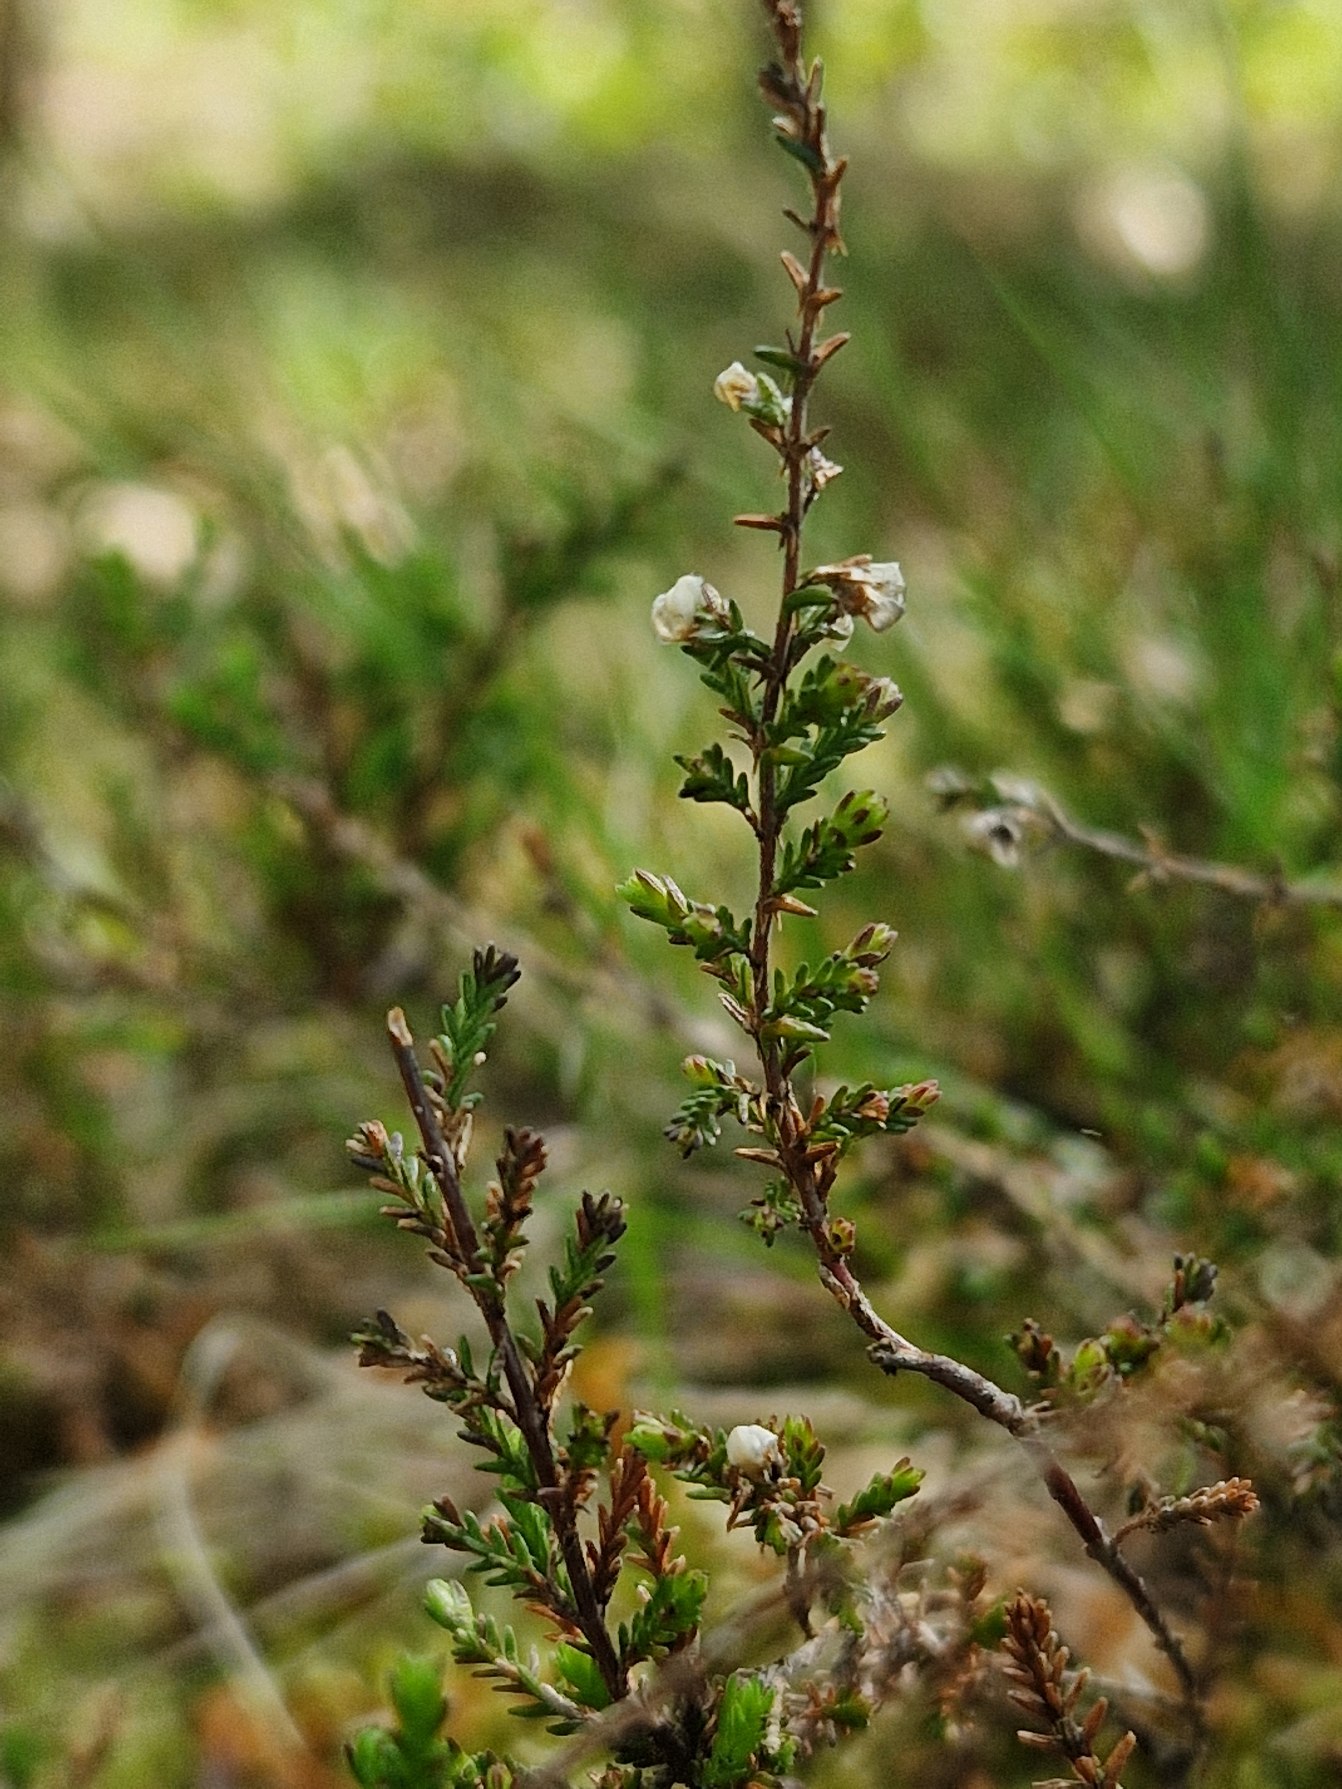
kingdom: Plantae
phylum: Tracheophyta
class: Magnoliopsida
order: Ericales
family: Ericaceae
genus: Calluna
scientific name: Calluna vulgaris
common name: Hedelyng
